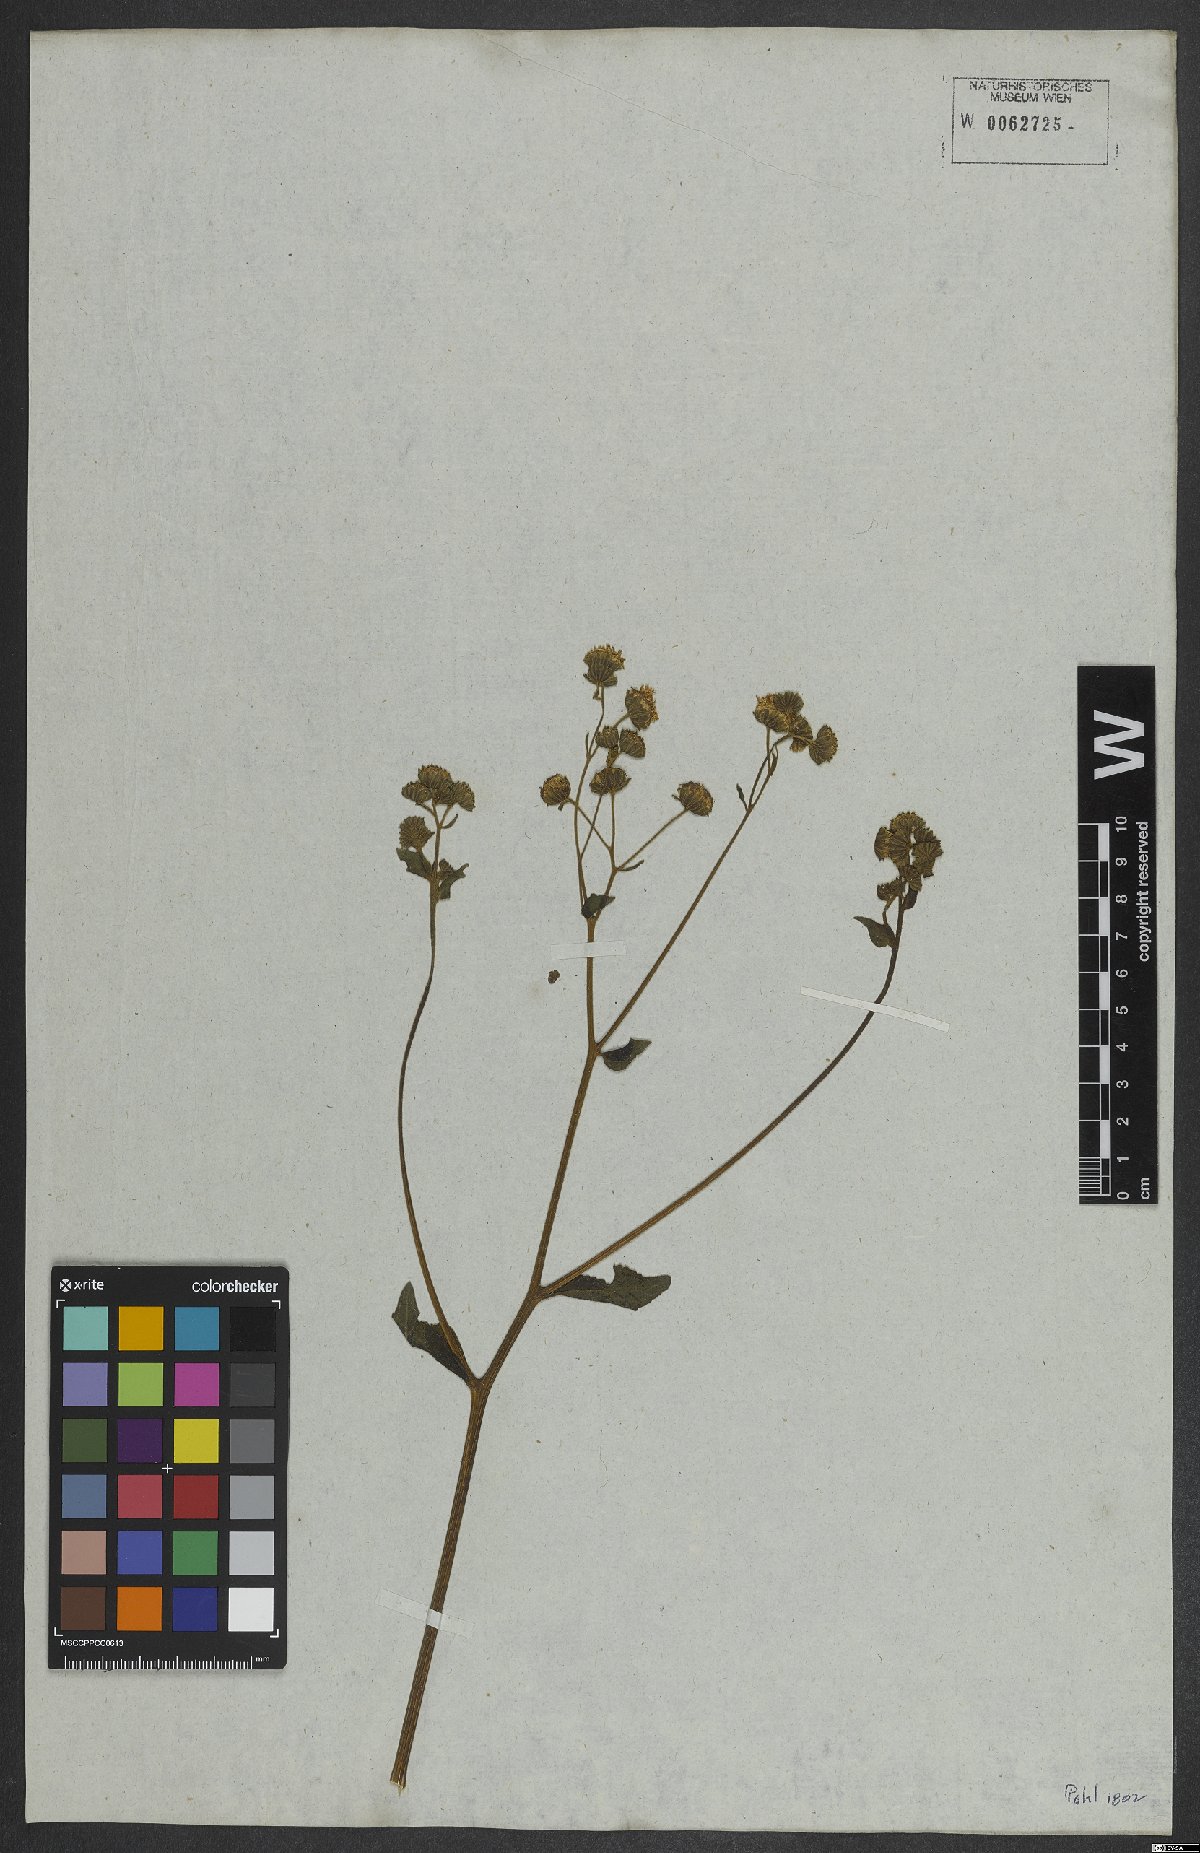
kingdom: Plantae
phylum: Tracheophyta
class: Magnoliopsida
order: Asterales
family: Asteraceae
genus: Adenostemma
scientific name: Adenostemma brasilianum
